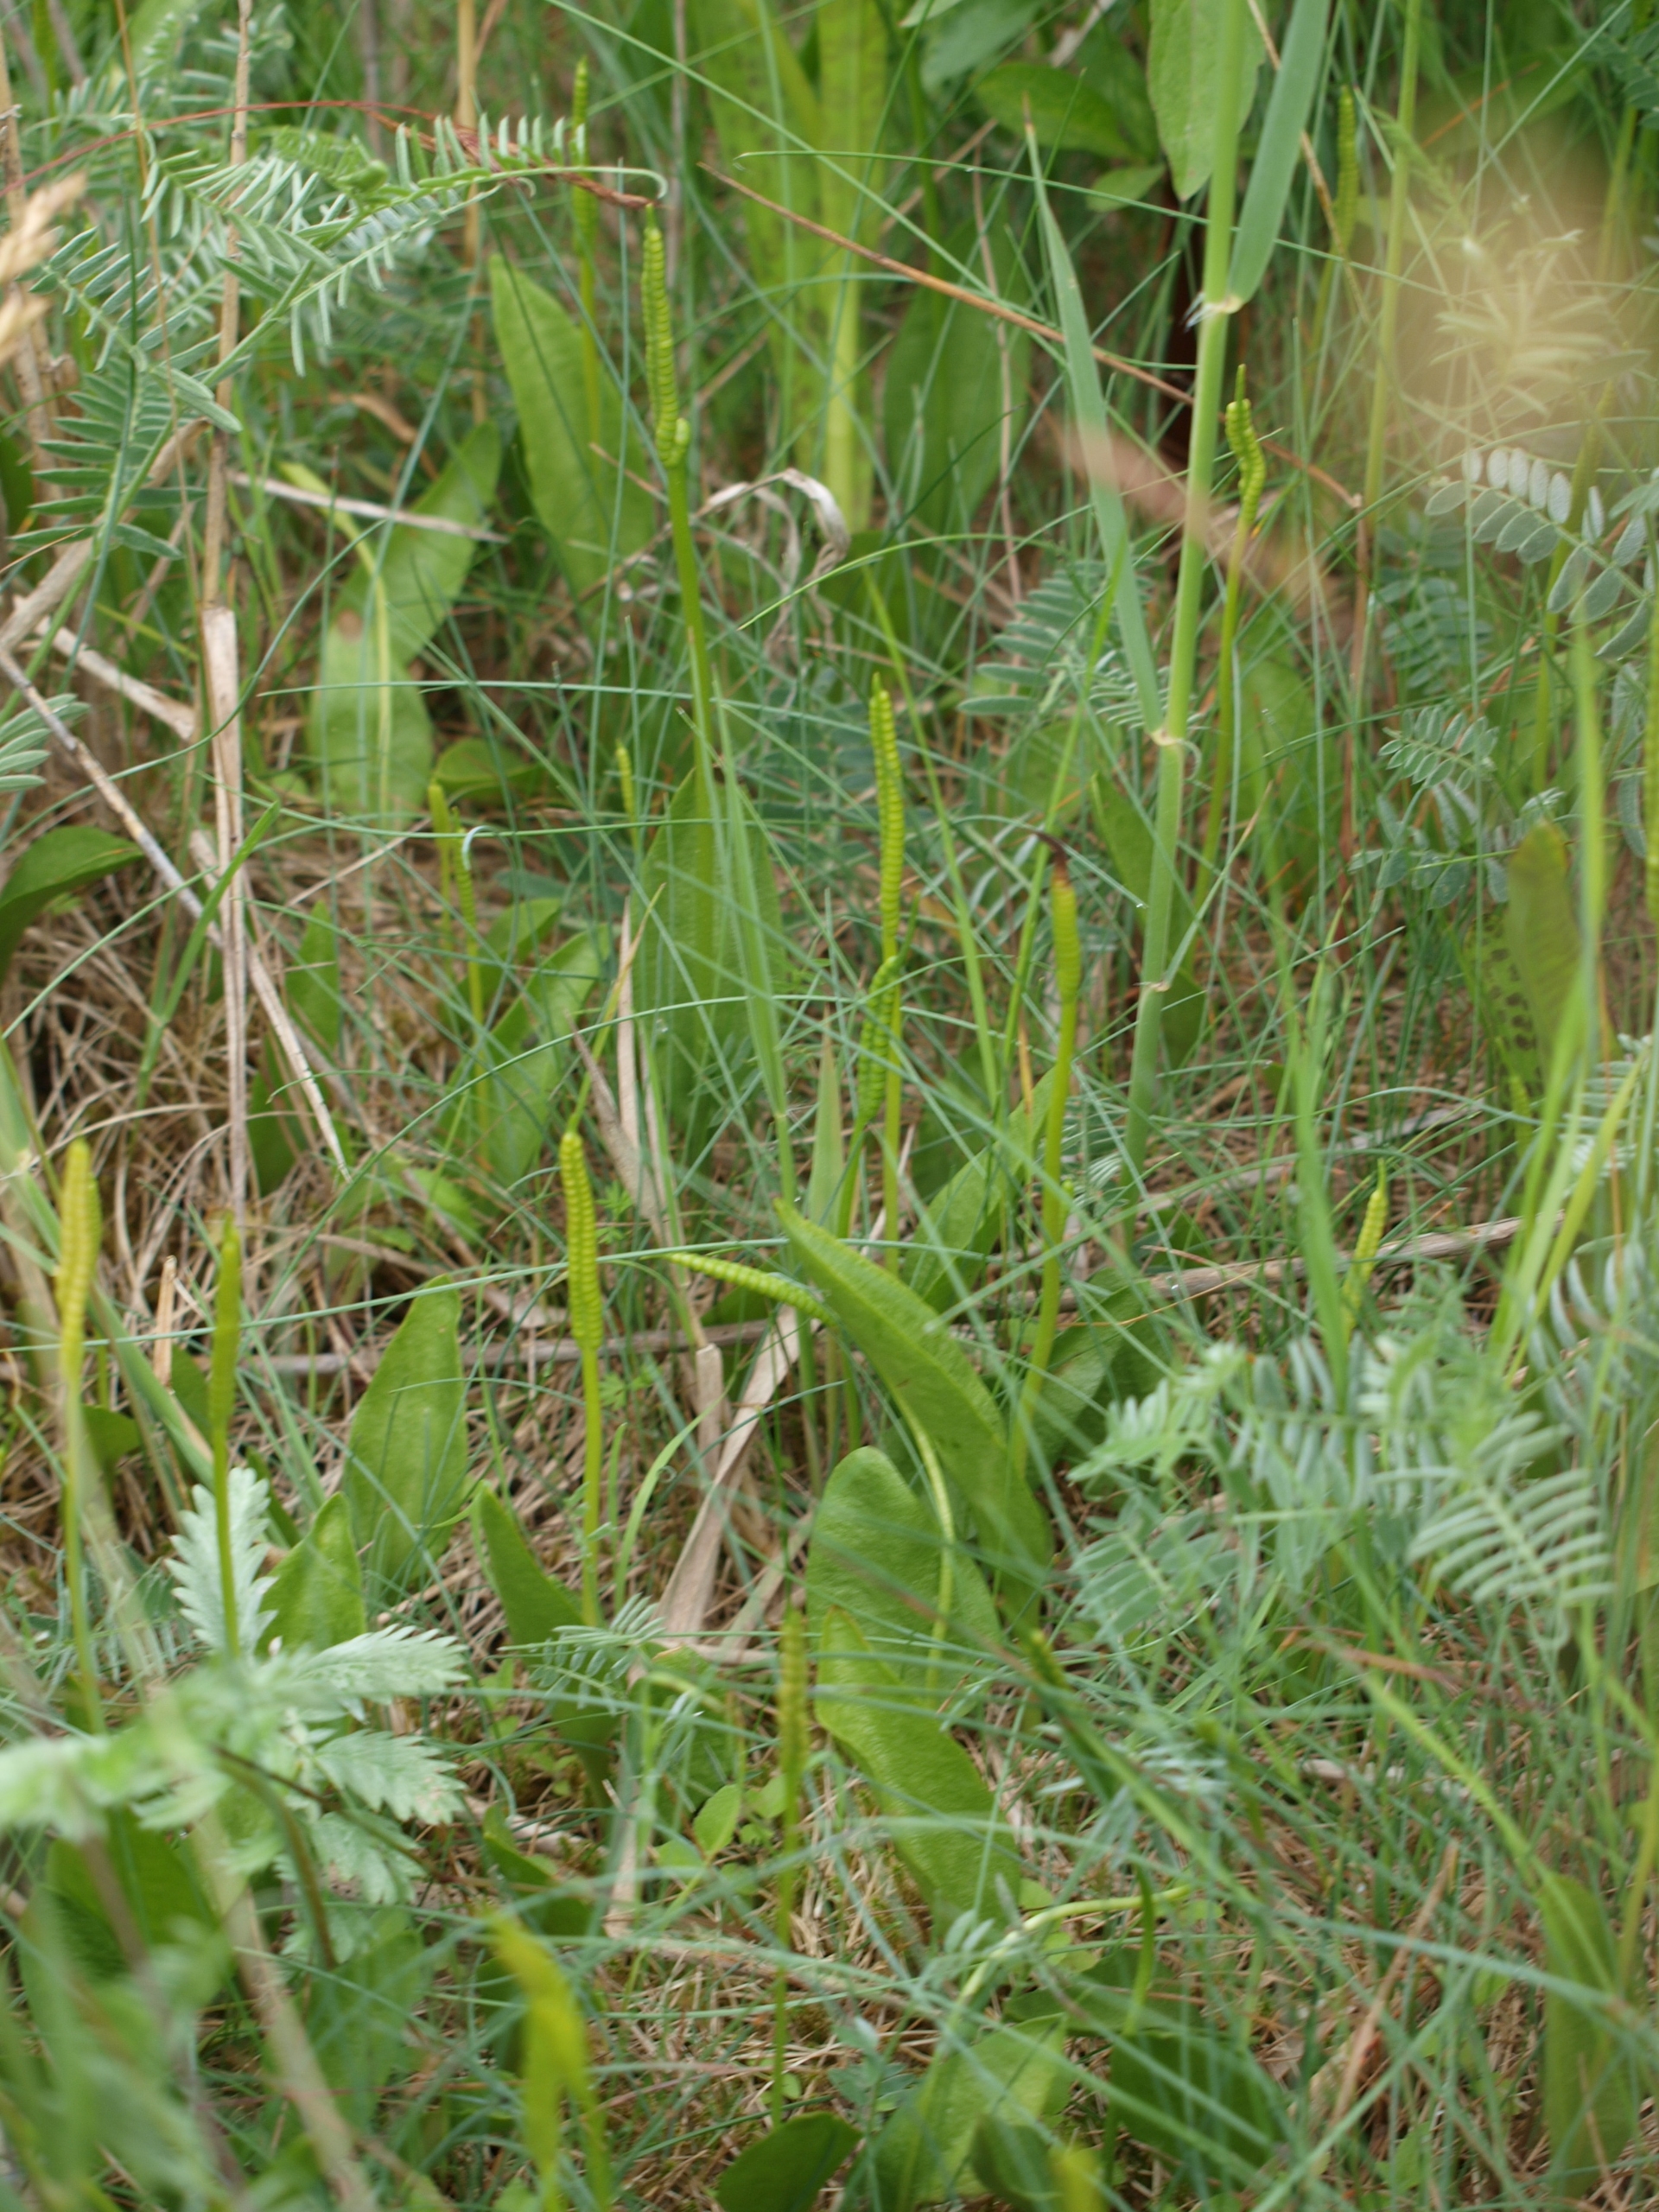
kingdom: Plantae
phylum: Tracheophyta
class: Polypodiopsida
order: Ophioglossales
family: Ophioglossaceae
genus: Ophioglossum
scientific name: Ophioglossum vulgatum
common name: Slangetunge
